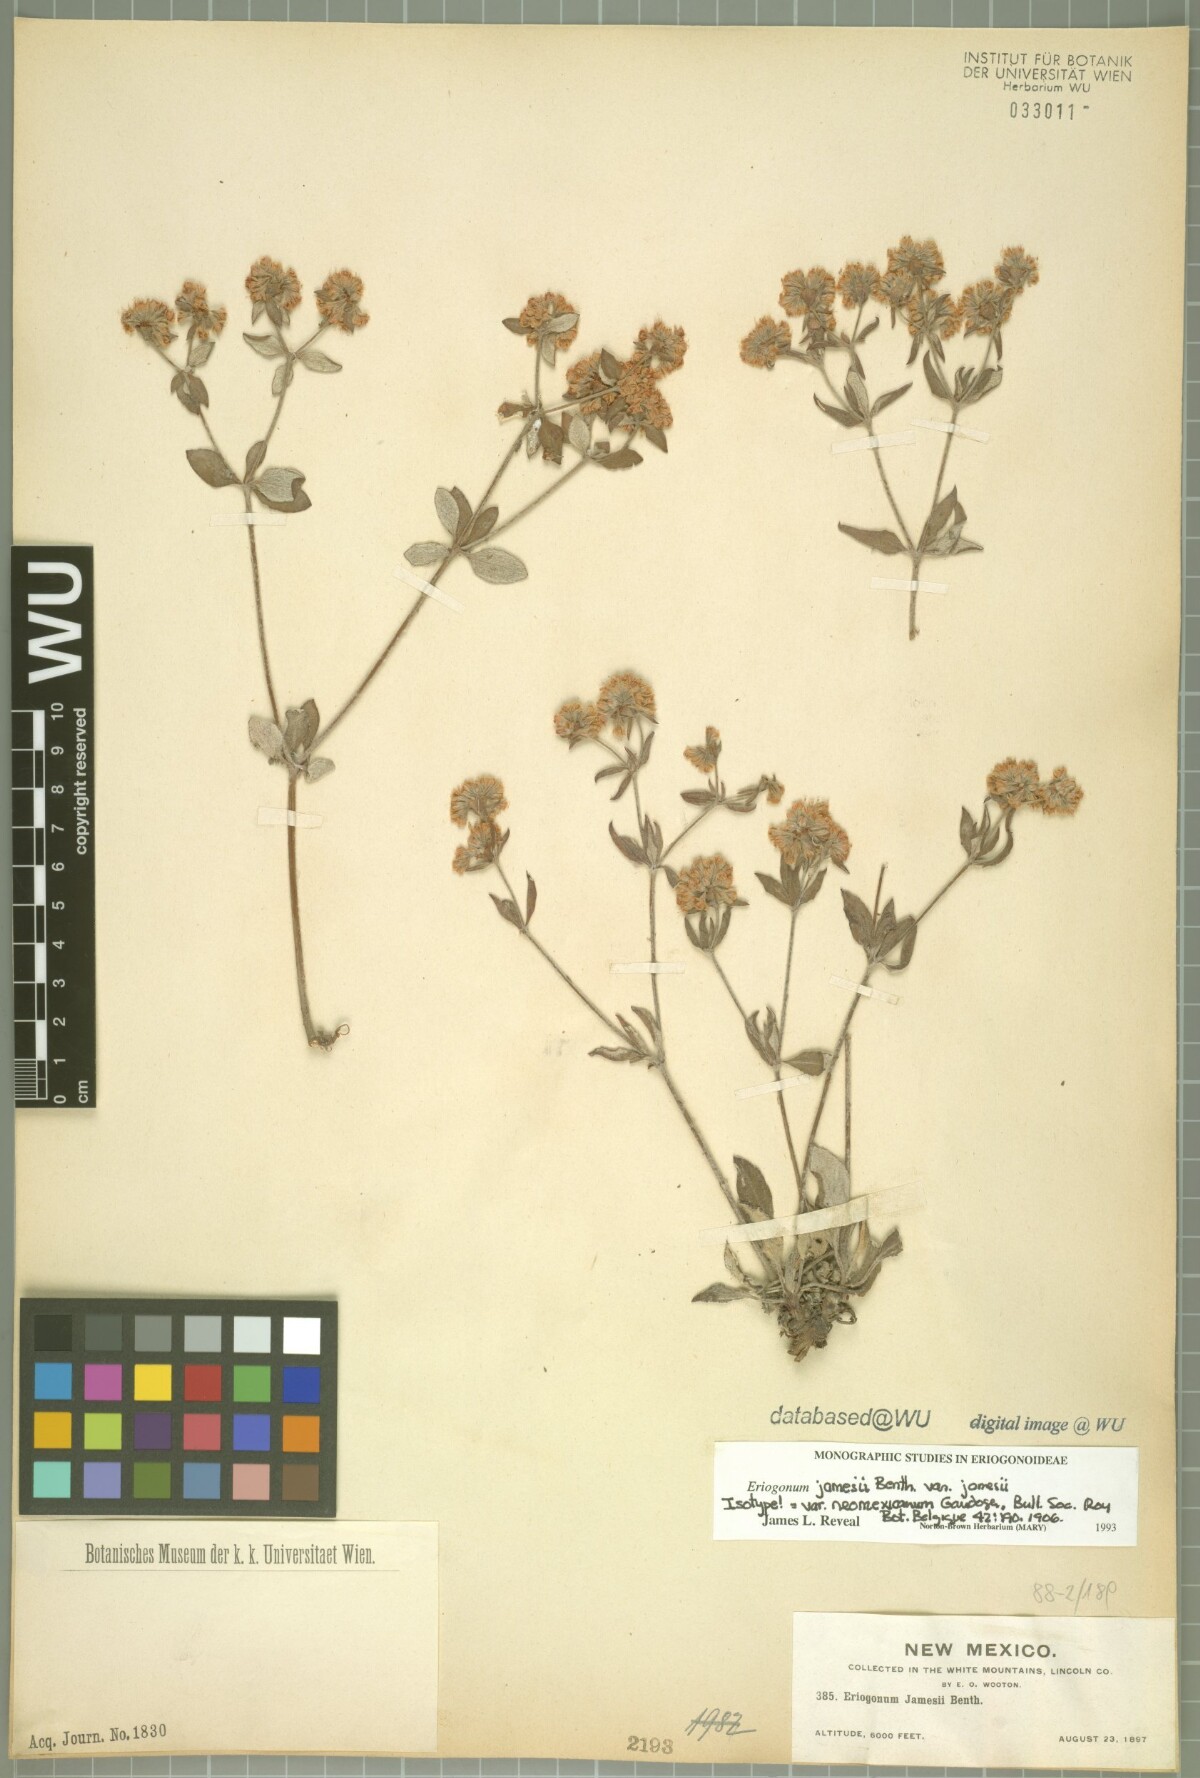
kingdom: Plantae
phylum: Tracheophyta
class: Magnoliopsida
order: Caryophyllales
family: Polygonaceae
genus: Eriogonum
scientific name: Eriogonum jamesii
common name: Antelope-sage
